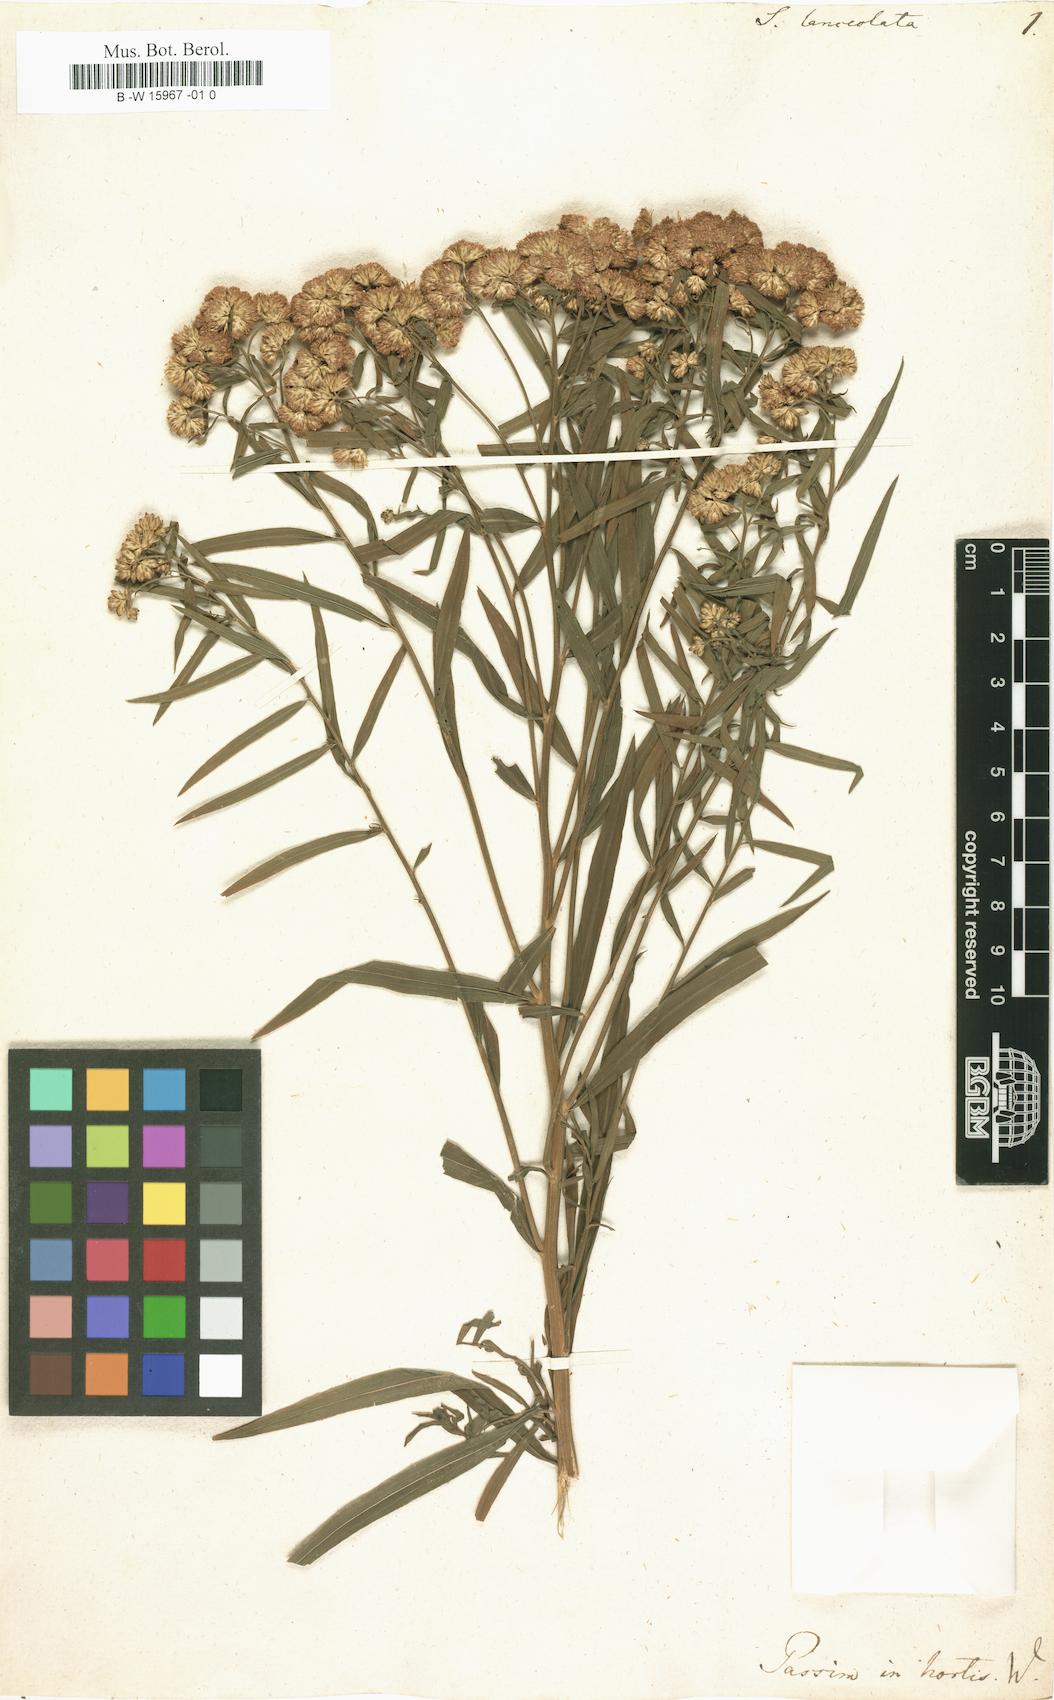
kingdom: Plantae
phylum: Tracheophyta
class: Magnoliopsida
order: Asterales
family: Asteraceae
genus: Euthamia
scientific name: Euthamia lanceolata
